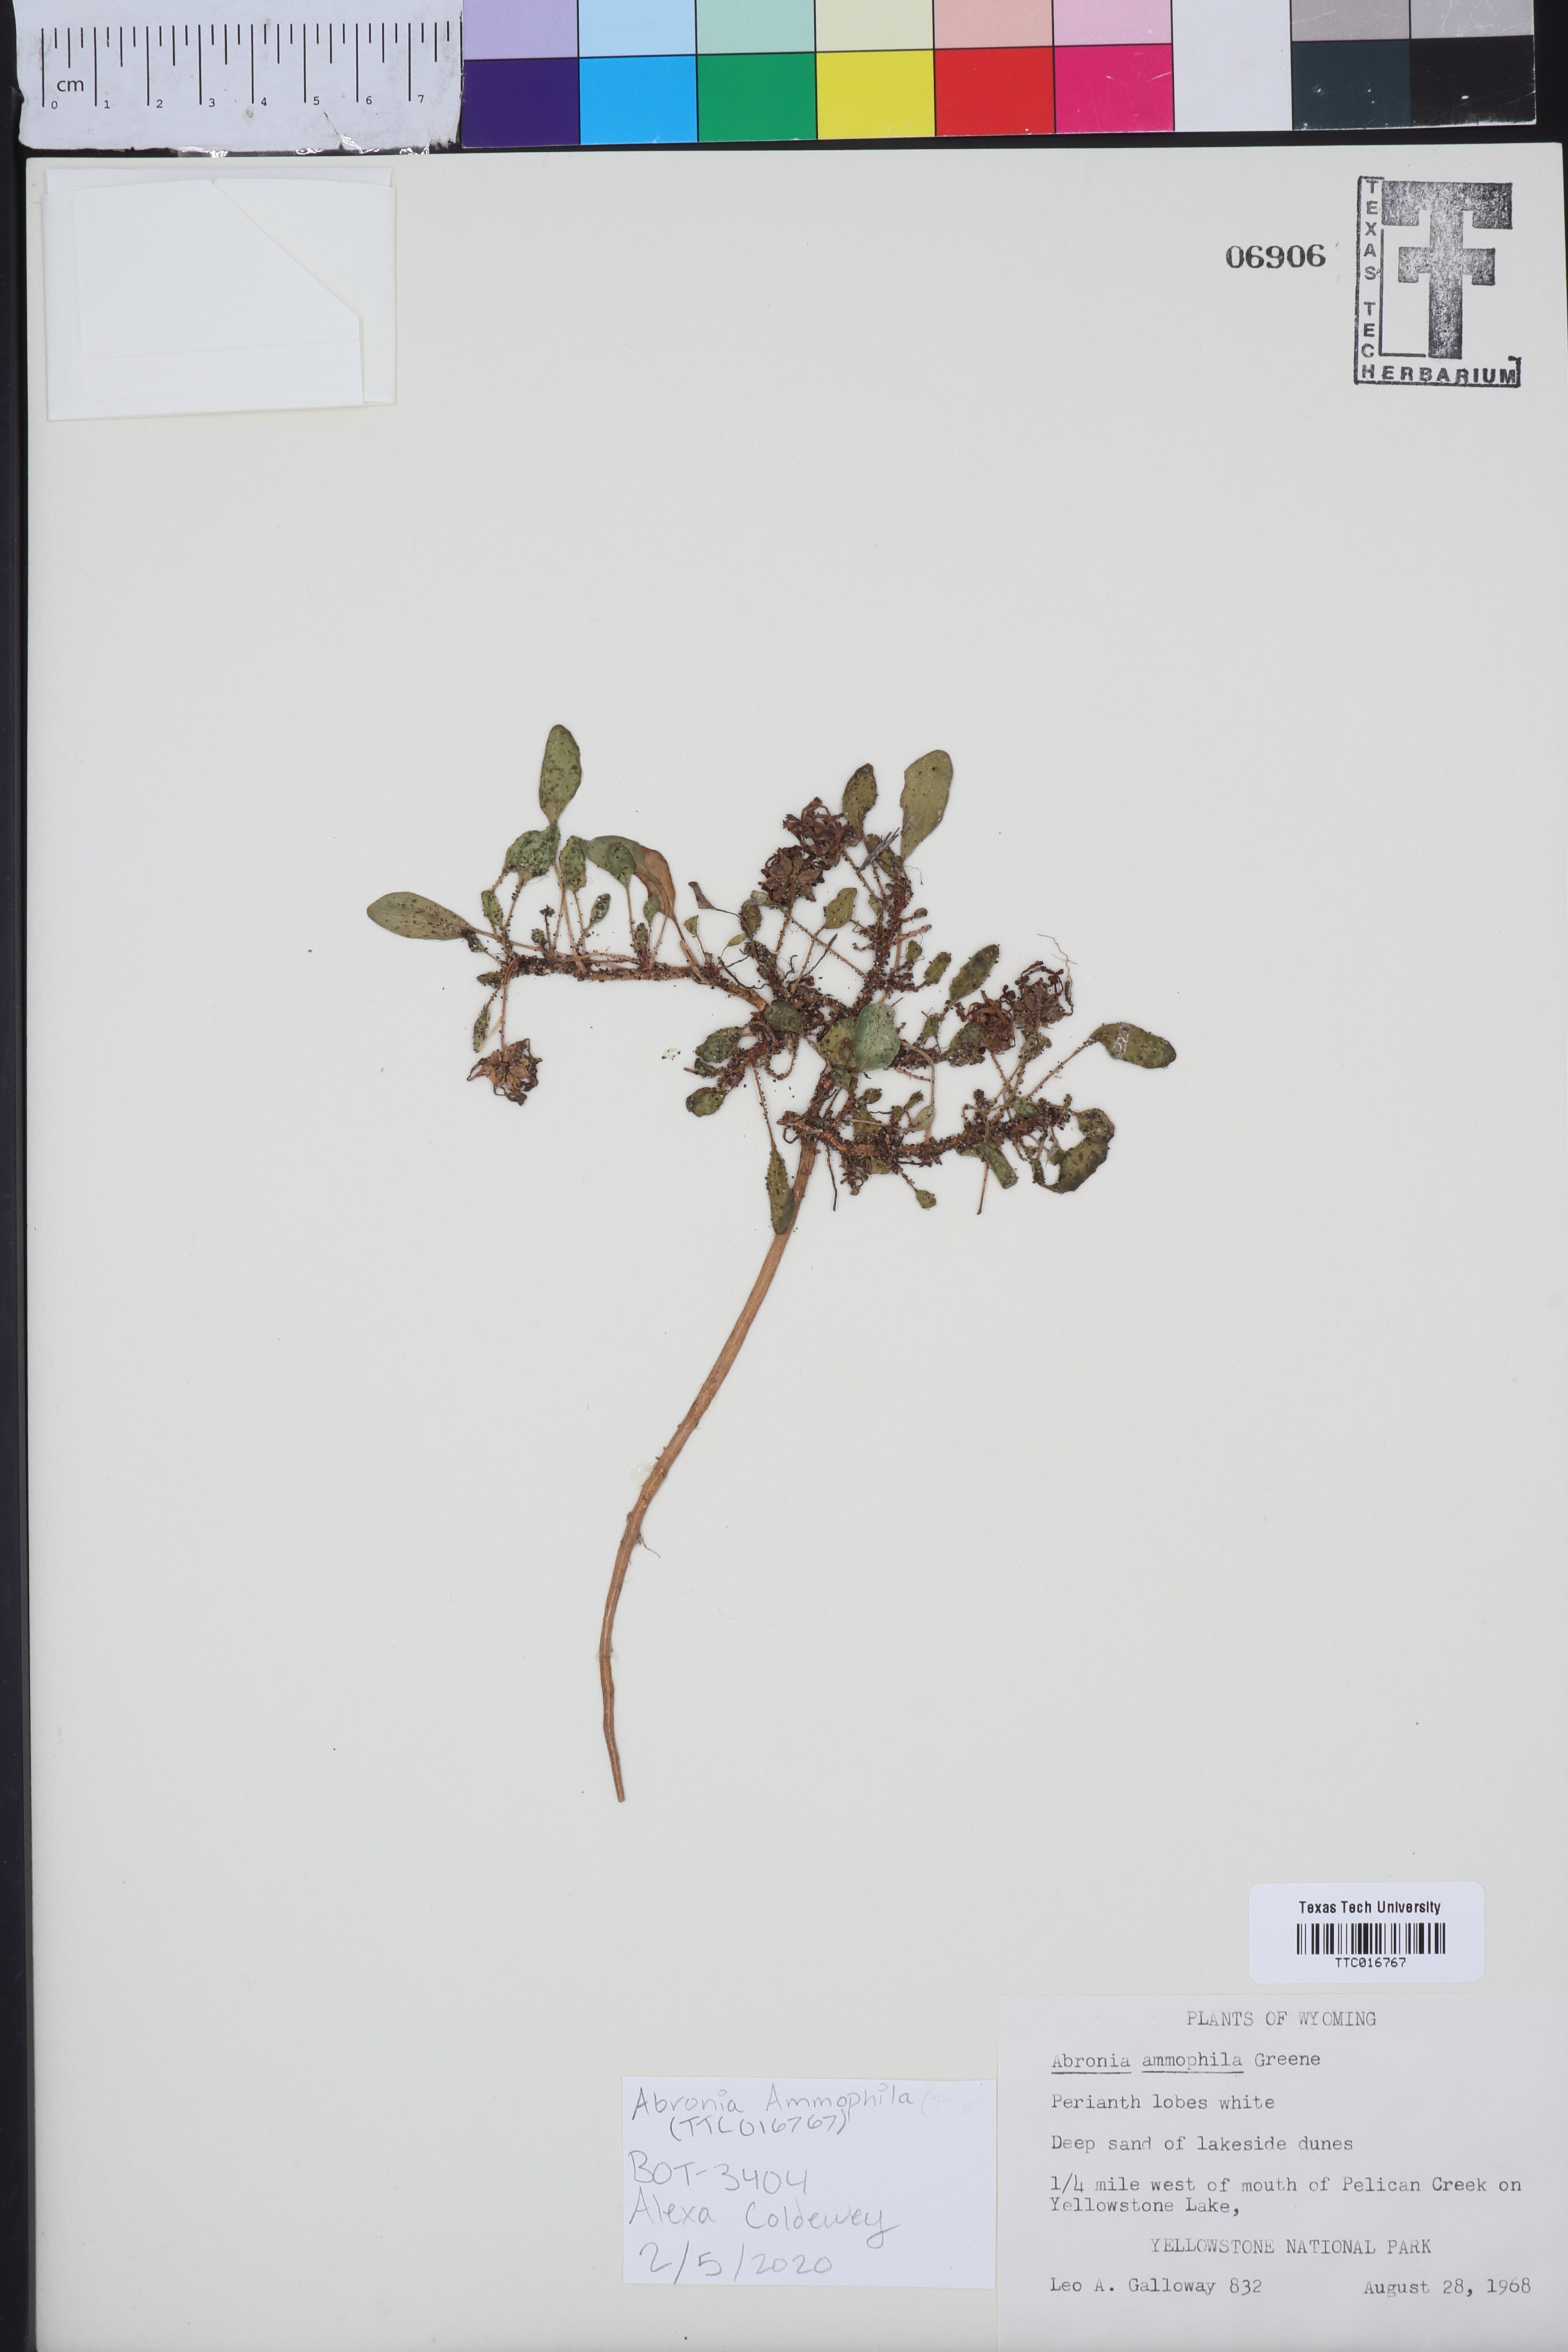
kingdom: Plantae
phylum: Tracheophyta
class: Magnoliopsida
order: Caryophyllales
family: Nyctaginaceae
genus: Abronia
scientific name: Abronia ammophila
